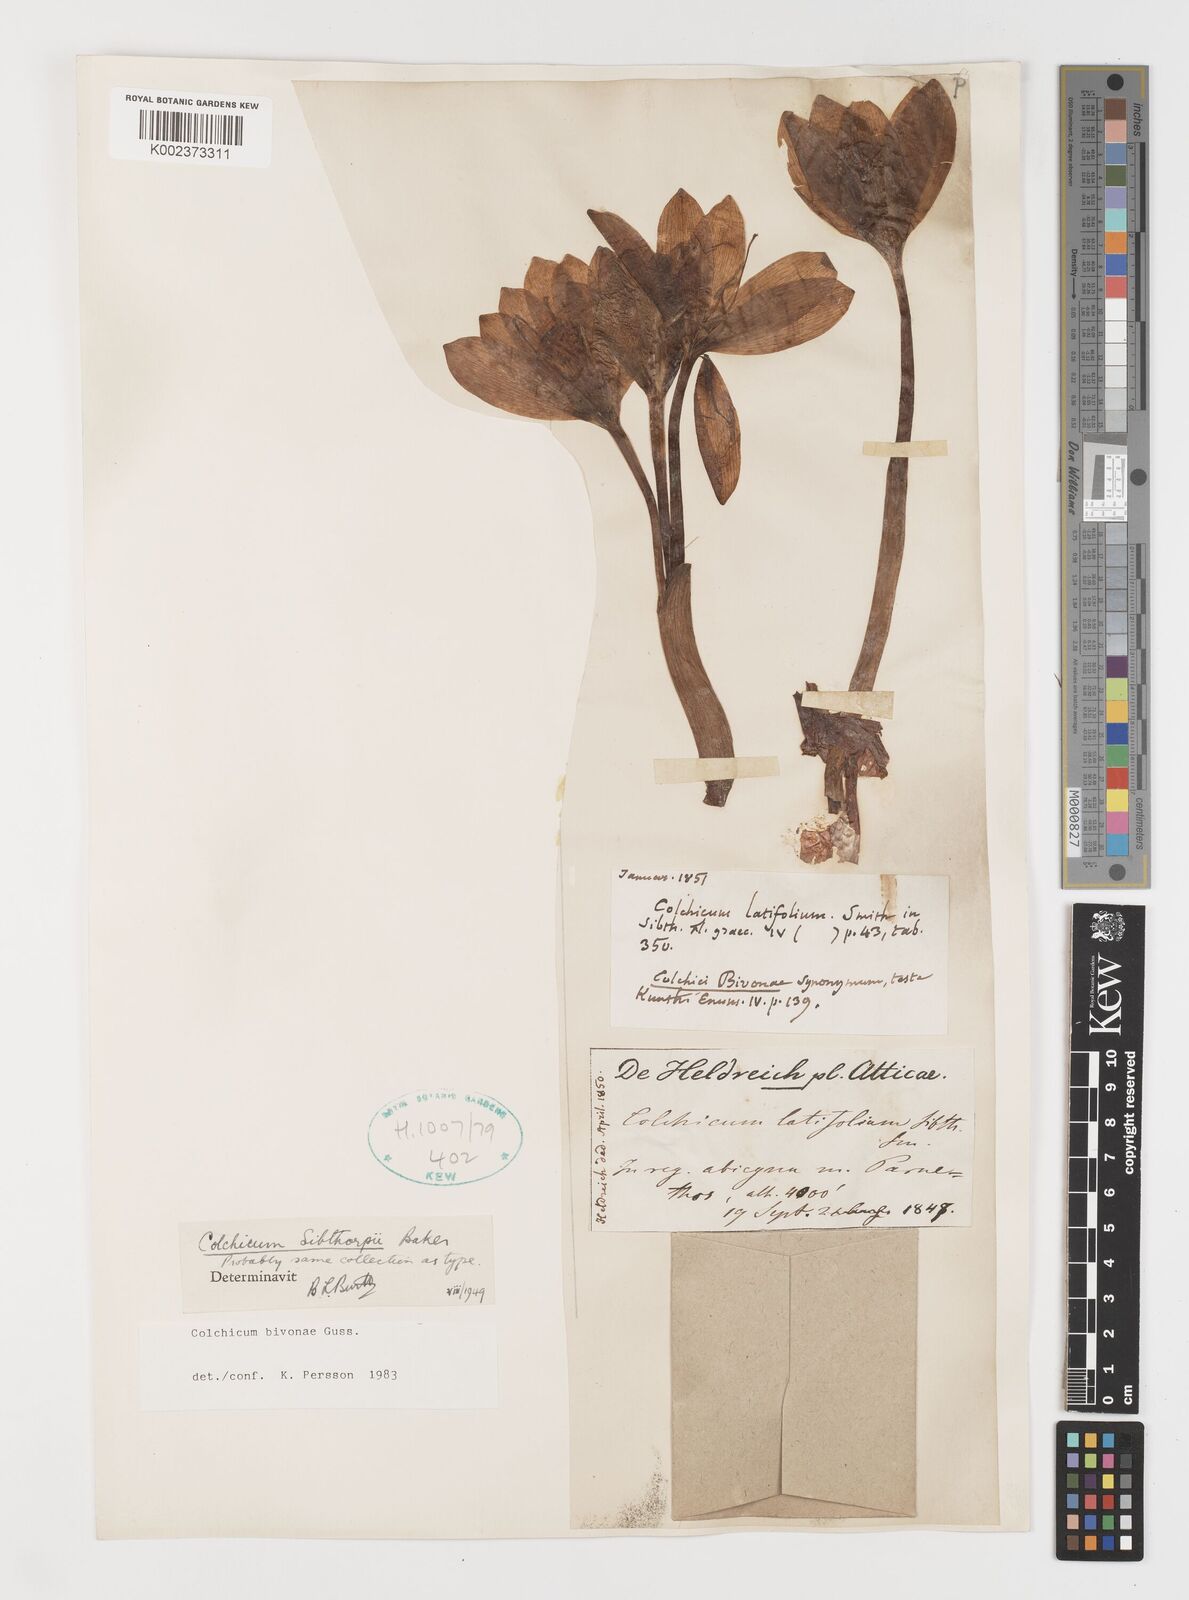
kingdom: Plantae
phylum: Tracheophyta
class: Liliopsida
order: Liliales
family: Colchicaceae
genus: Colchicum
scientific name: Colchicum bivonae
